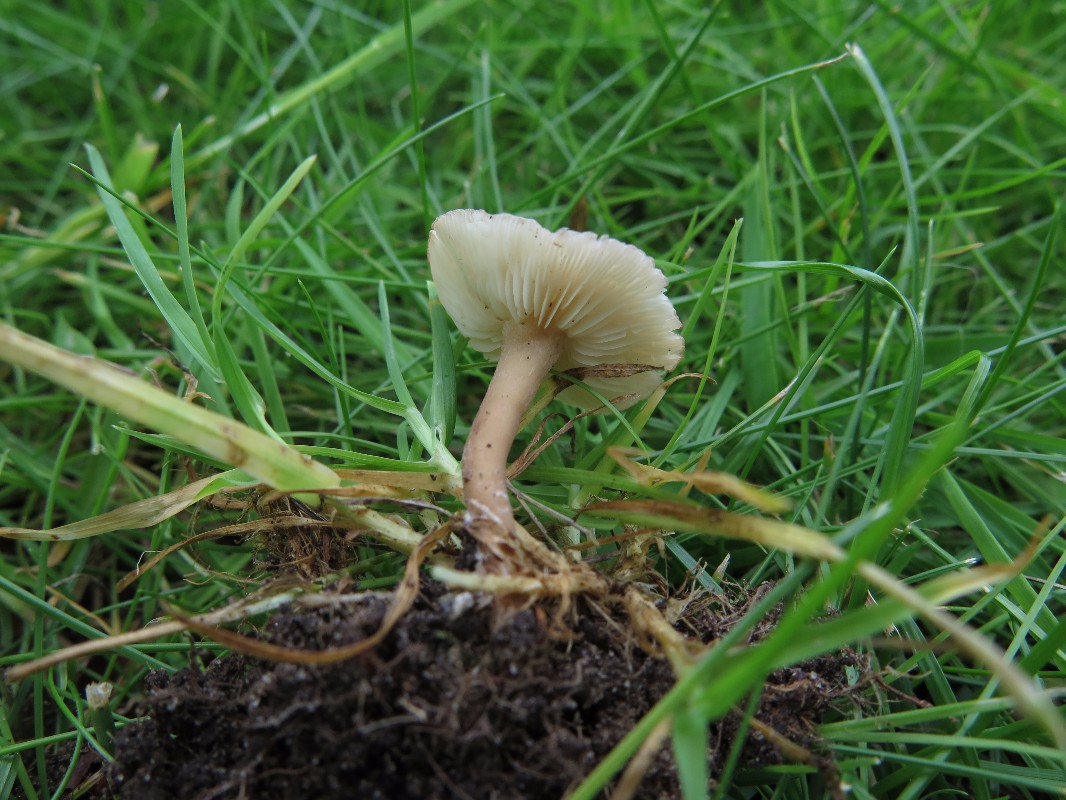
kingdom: Fungi
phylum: Basidiomycota
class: Agaricomycetes
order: Agaricales
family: Lyophyllaceae
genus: Calocybe
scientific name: Calocybe carnea
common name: rosa fagerhat
